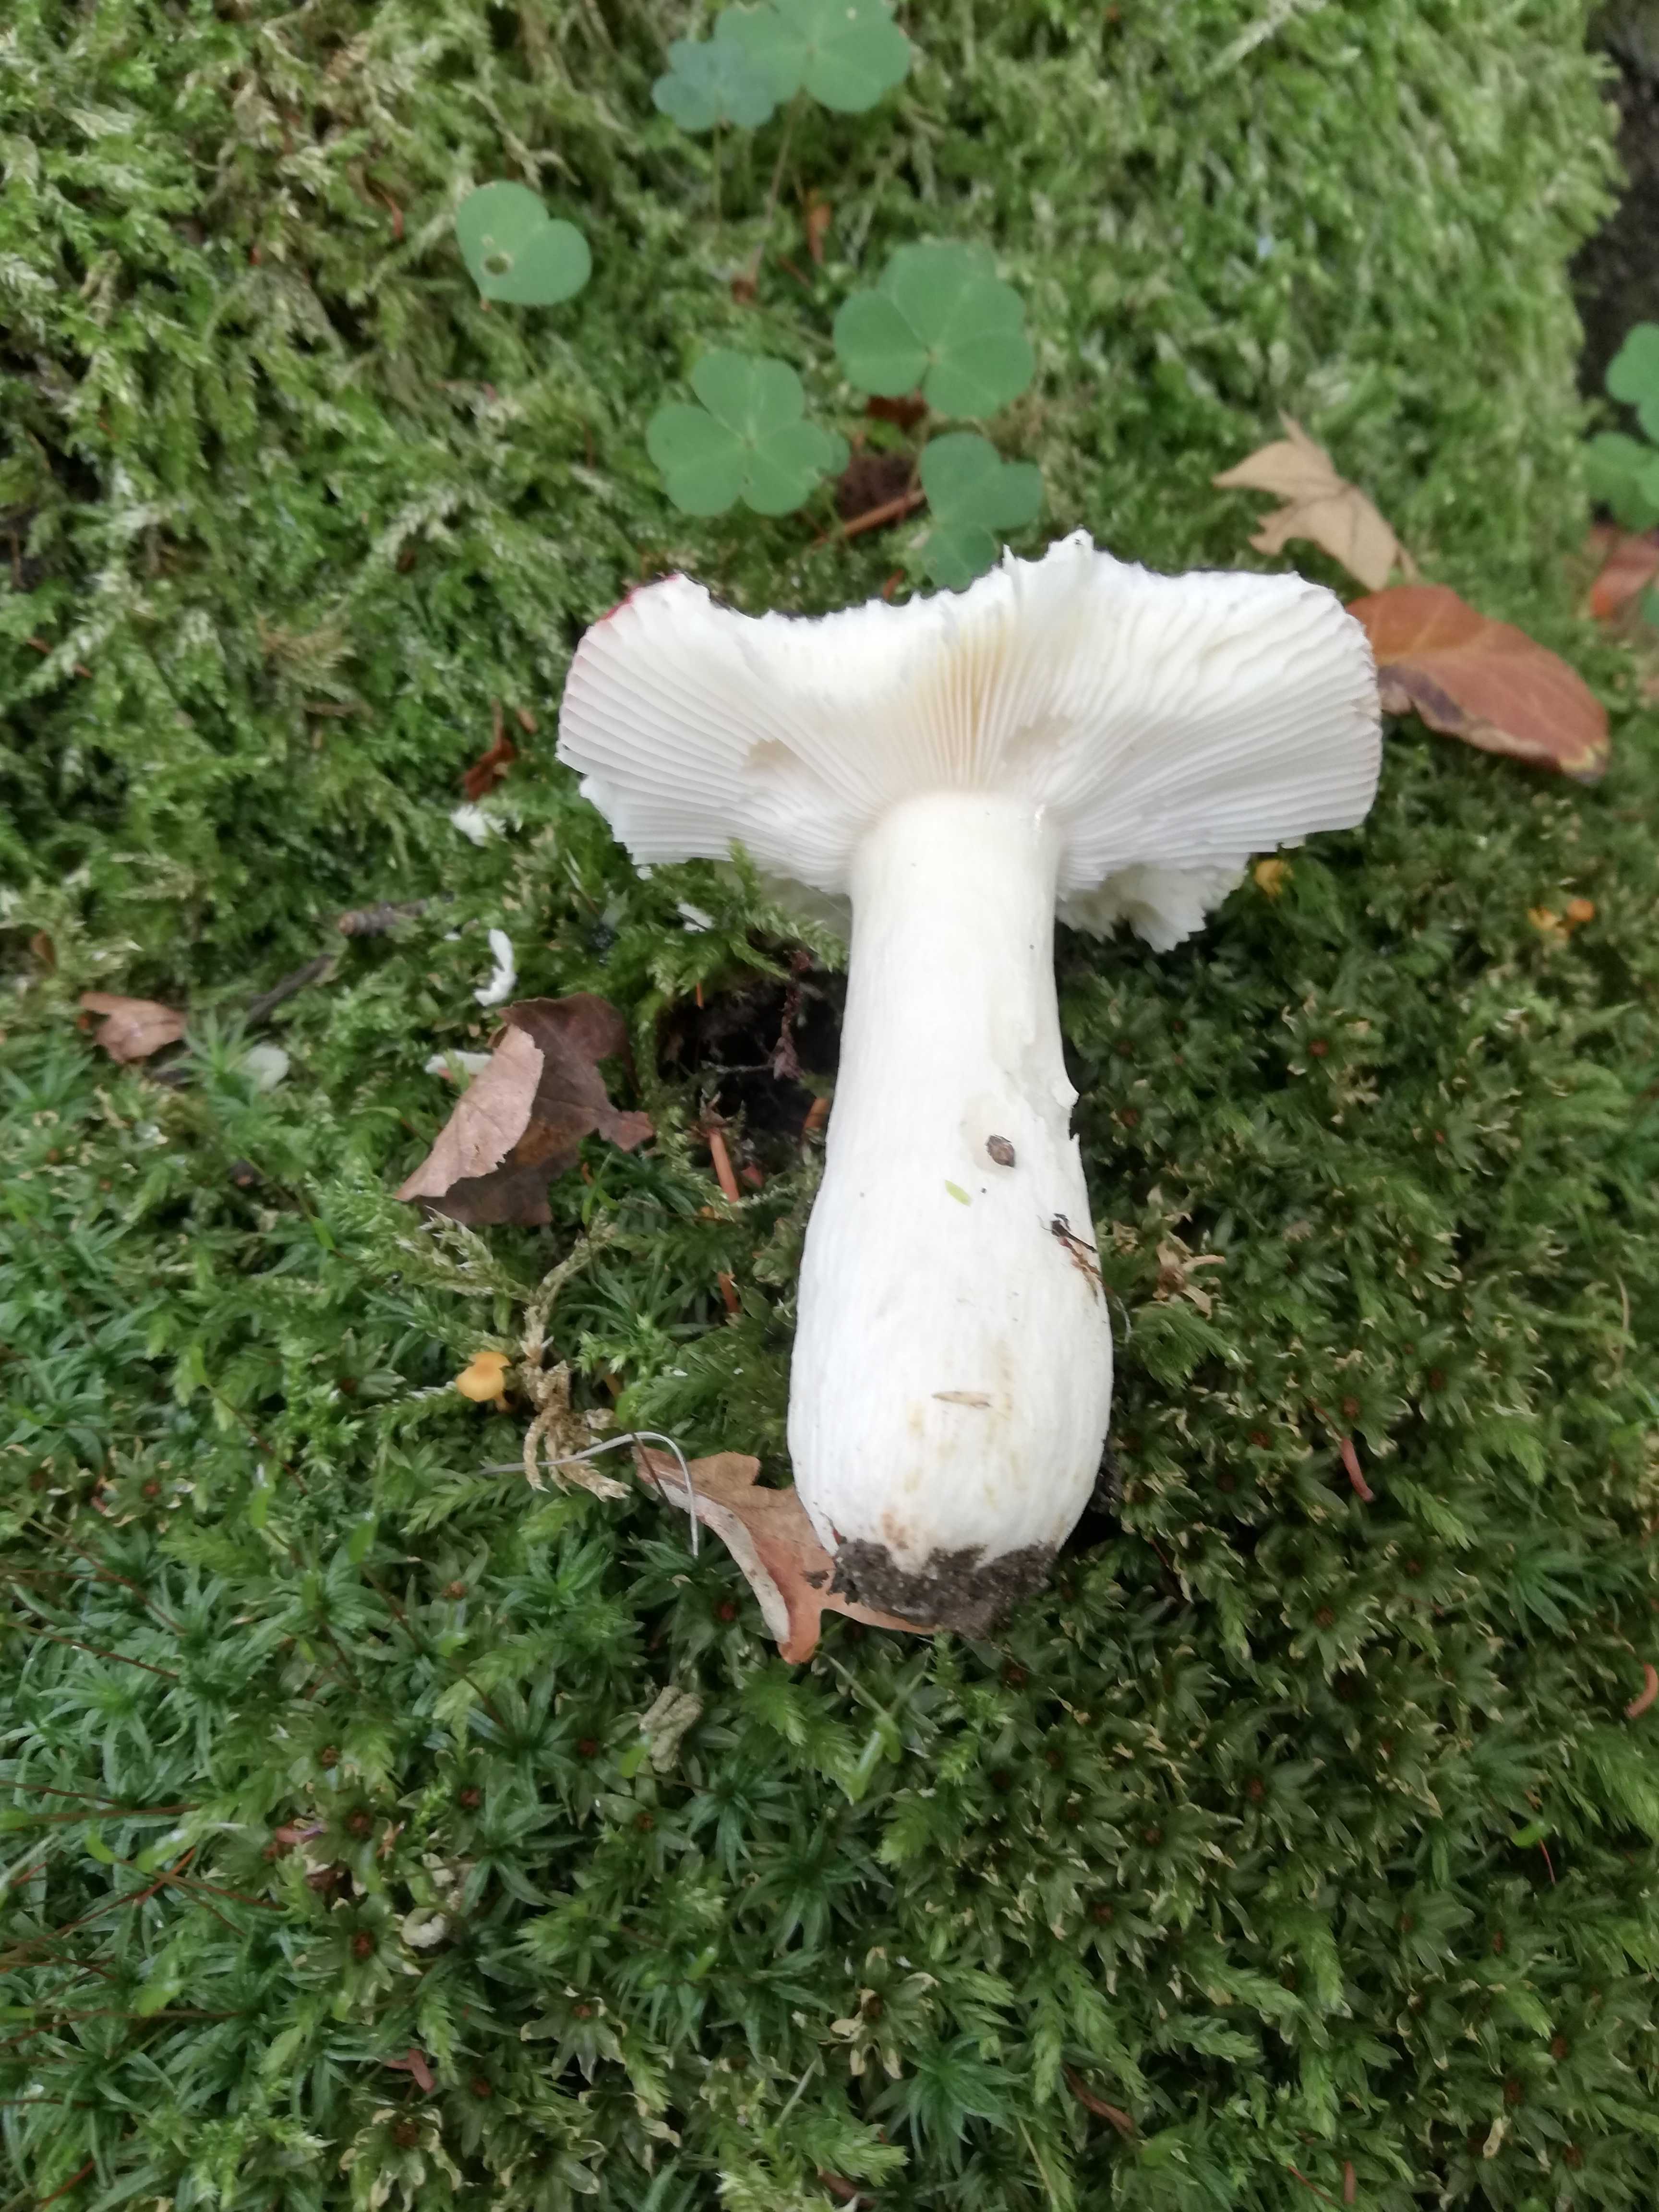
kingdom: Fungi
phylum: Basidiomycota
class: Agaricomycetes
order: Russulales
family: Russulaceae
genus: Russula
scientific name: Russula
